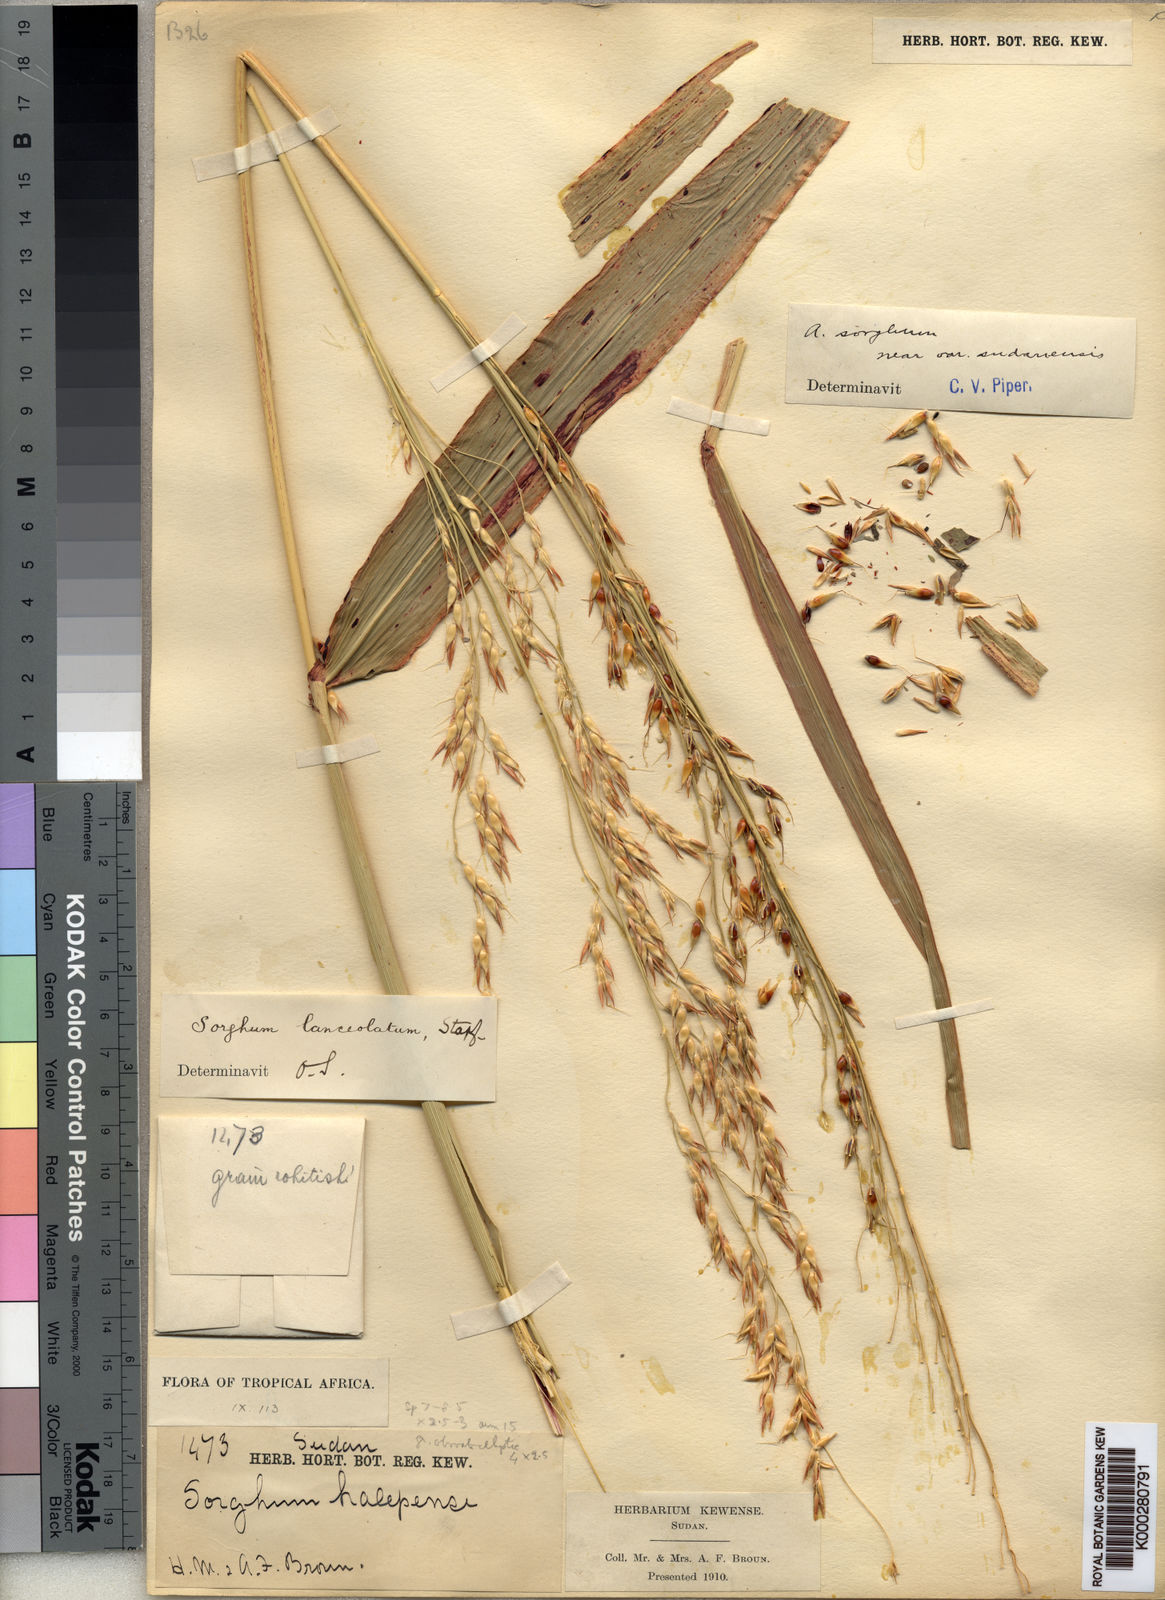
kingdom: Plantae
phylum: Tracheophyta
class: Liliopsida
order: Poales
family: Poaceae
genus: Sorghum
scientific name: Sorghum arundinaceum
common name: Sorghum
